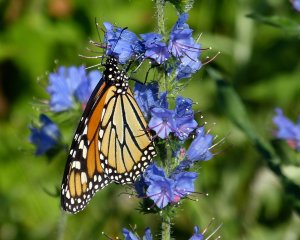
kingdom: Animalia
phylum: Arthropoda
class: Insecta
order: Lepidoptera
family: Nymphalidae
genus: Danaus
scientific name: Danaus plexippus
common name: Monarch
